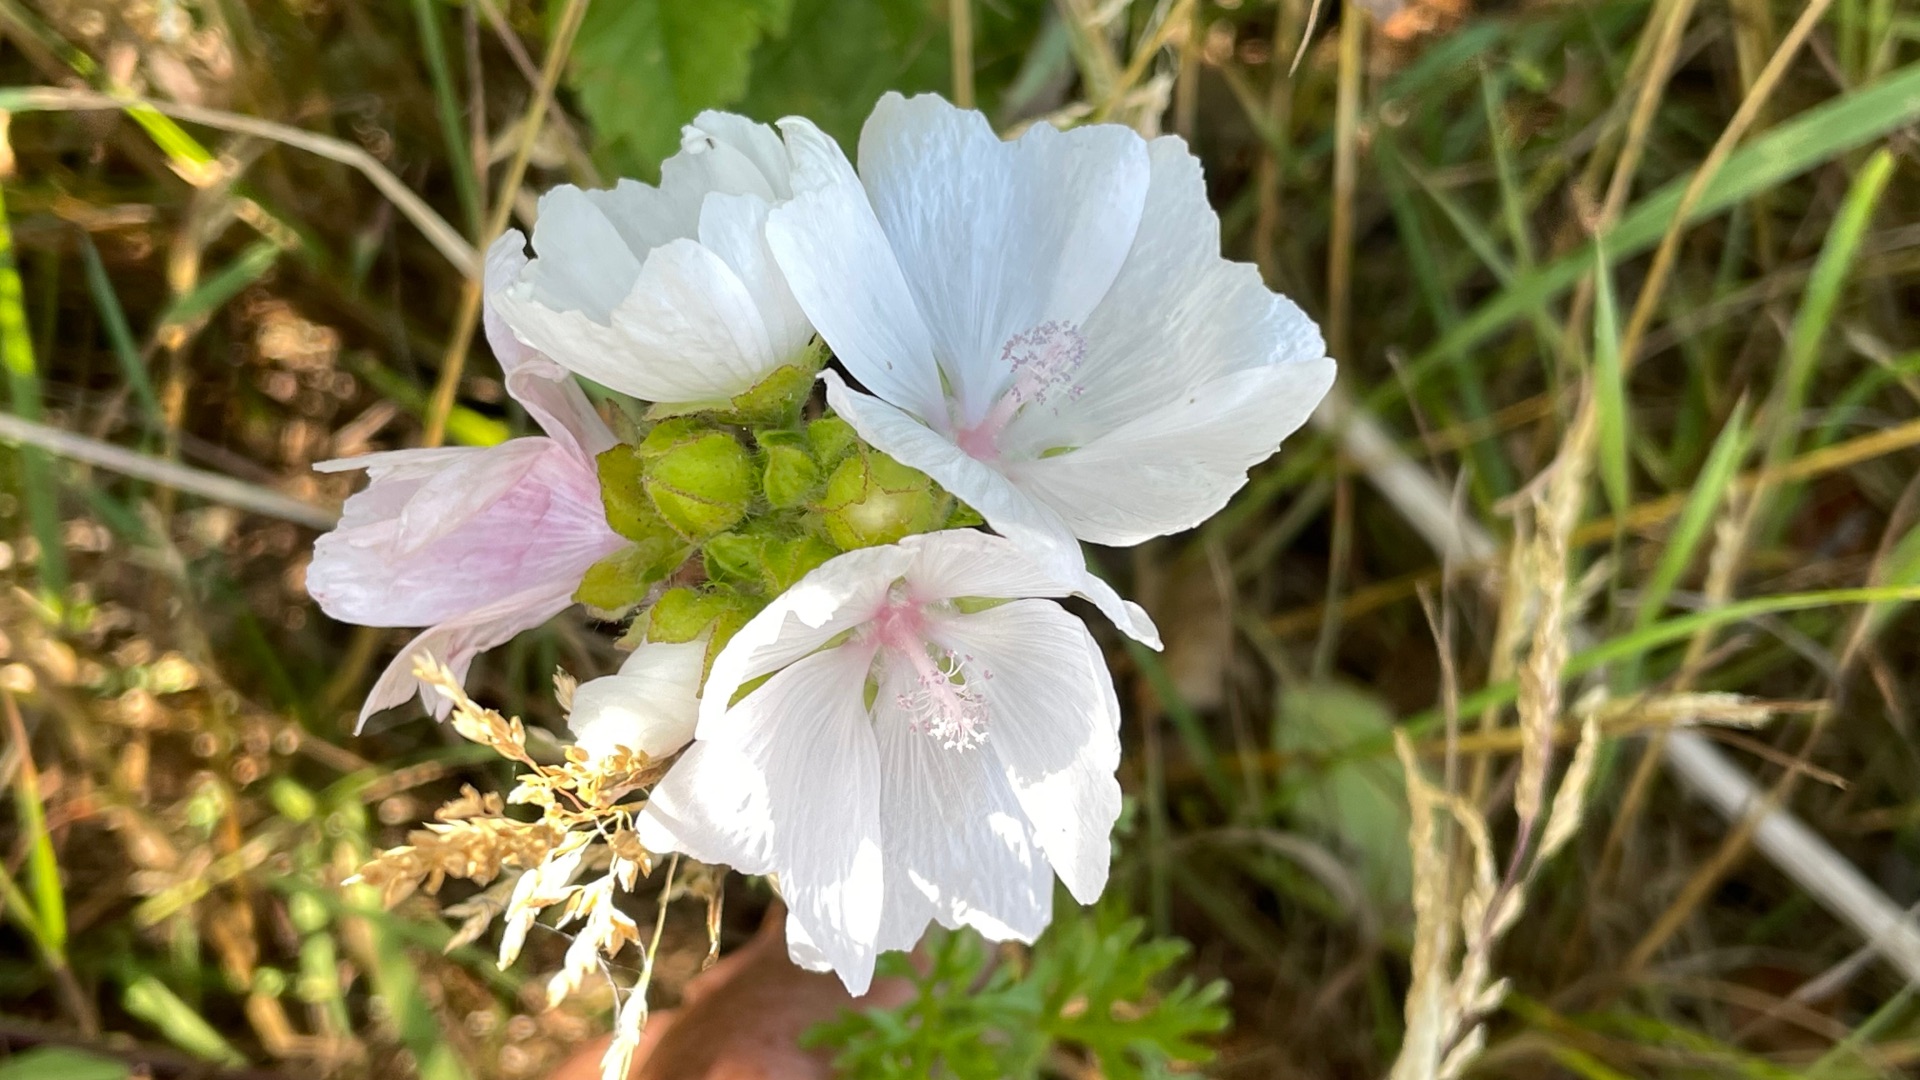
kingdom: Plantae
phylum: Tracheophyta
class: Magnoliopsida
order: Malvales
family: Malvaceae
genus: Malva
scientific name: Malva
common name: Katostslægten
